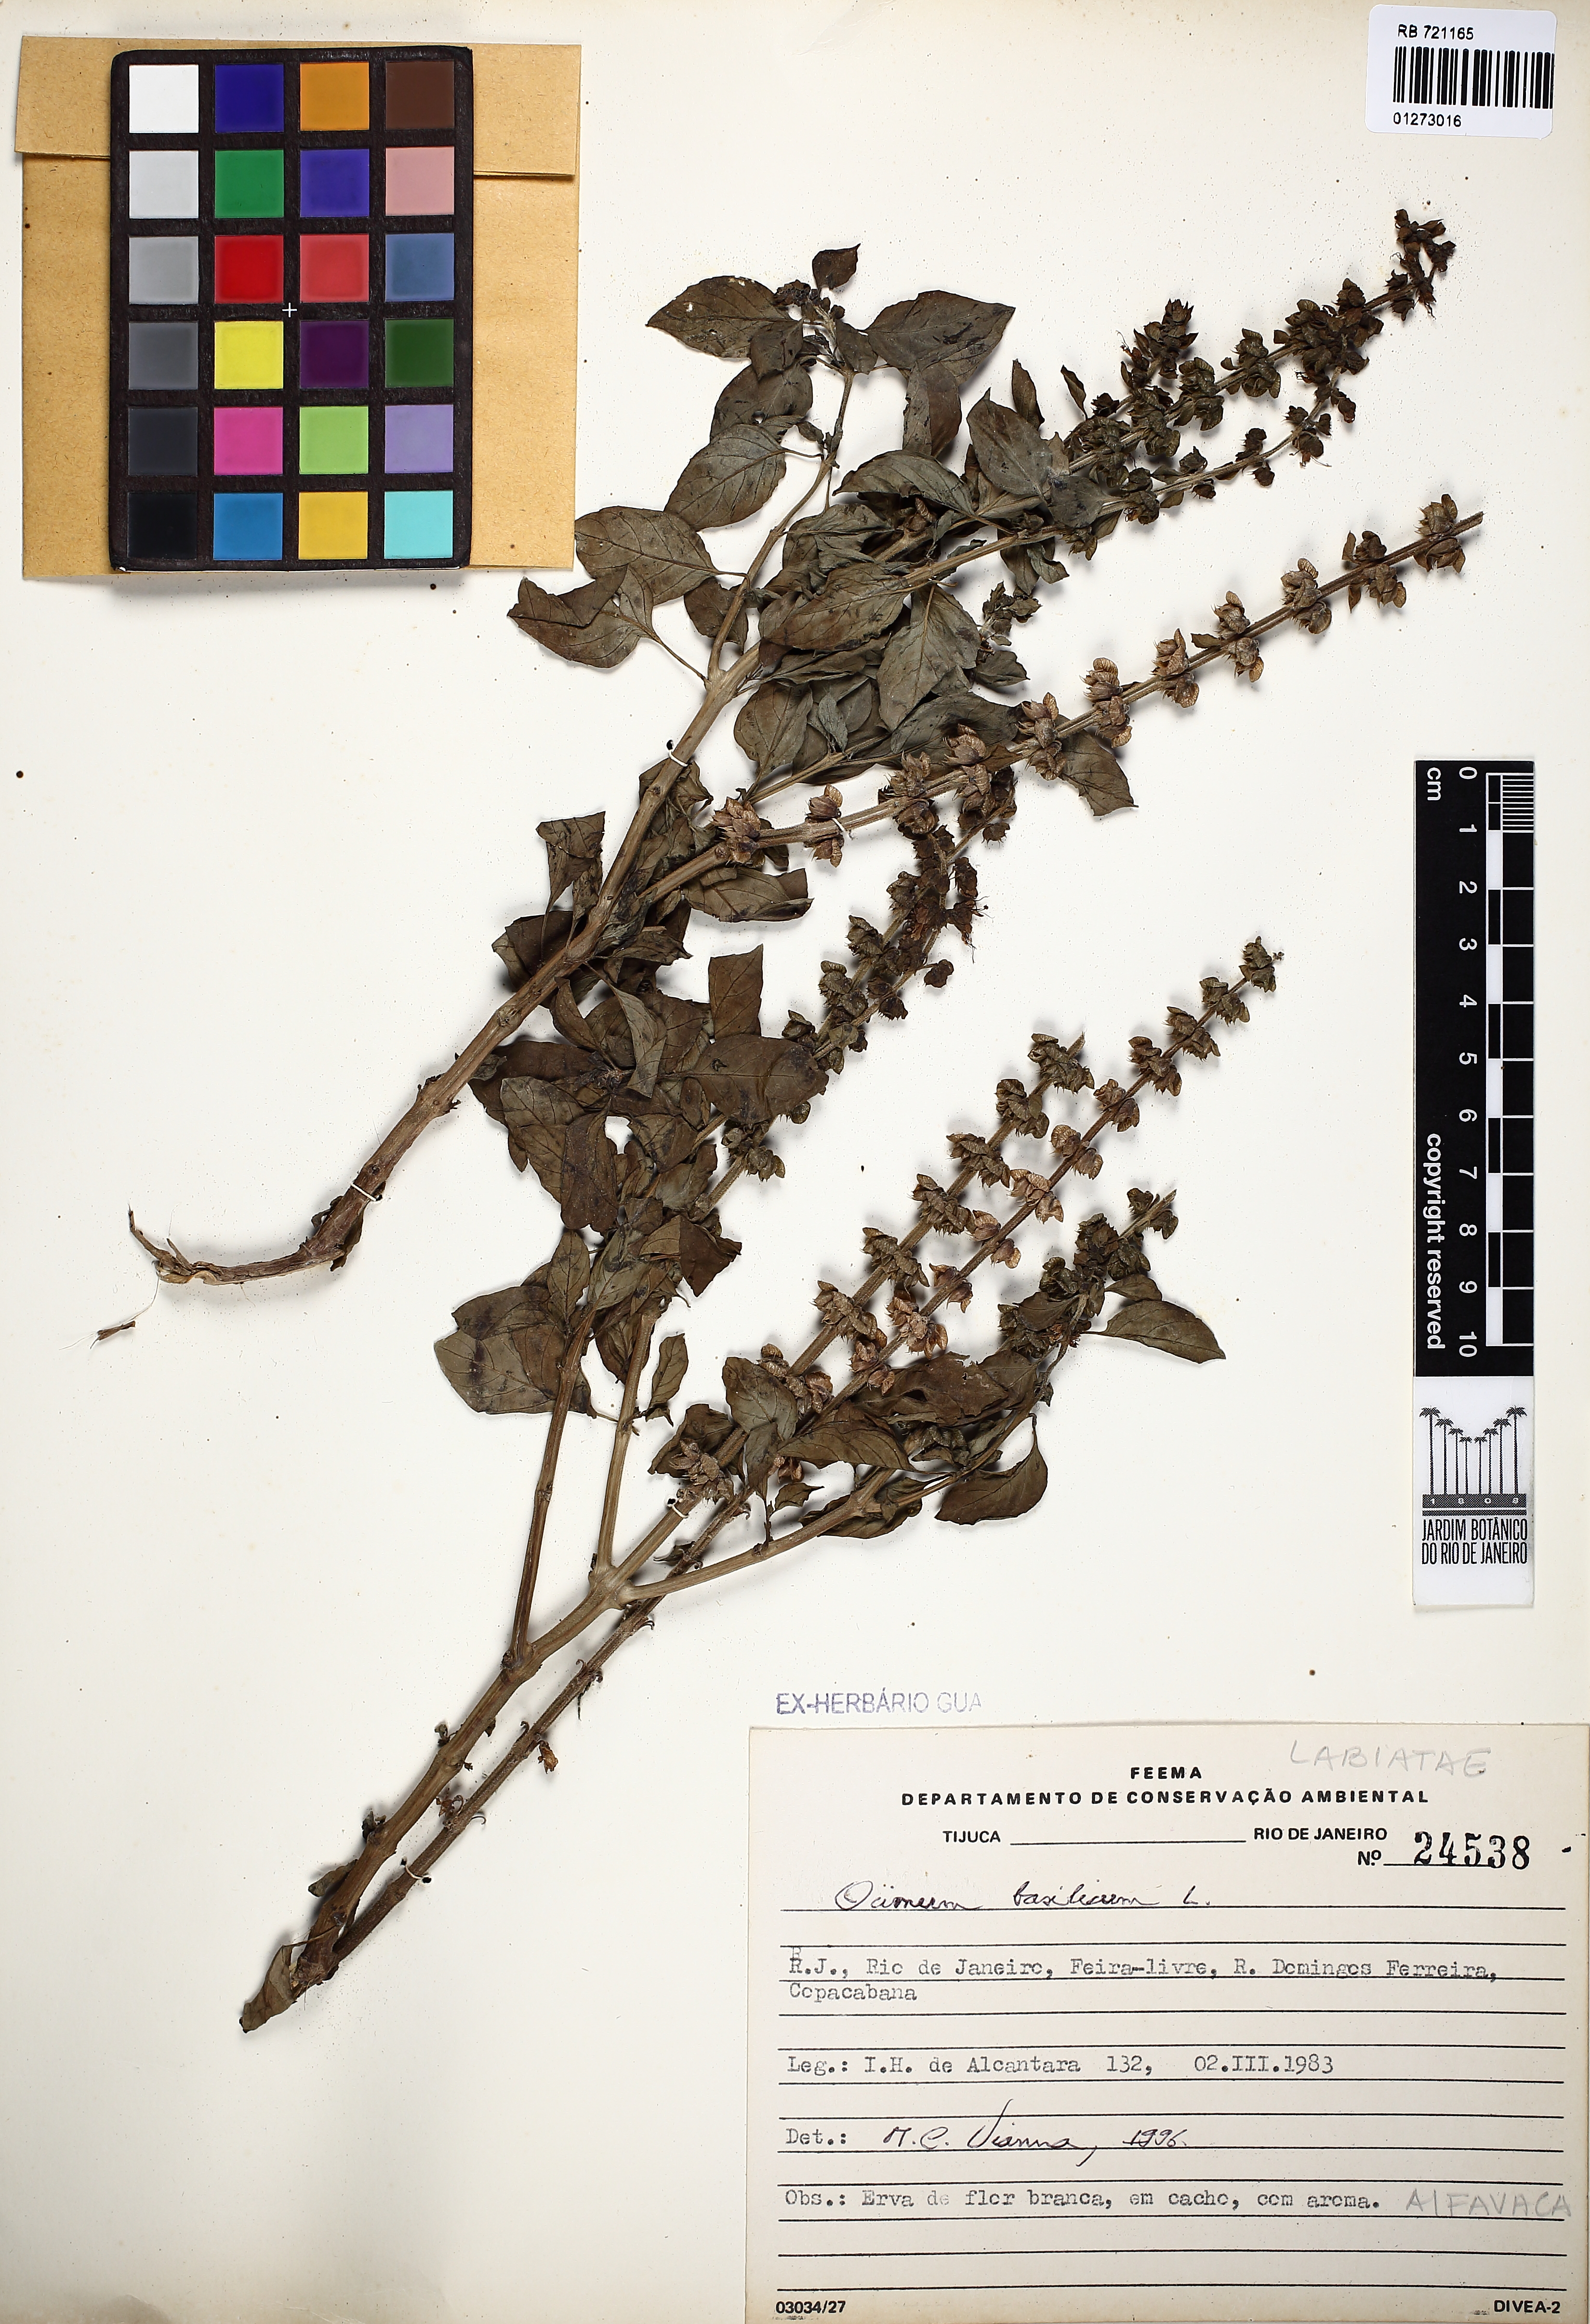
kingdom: Plantae
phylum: Tracheophyta
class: Magnoliopsida
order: Lamiales
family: Lamiaceae
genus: Ocimum
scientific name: Ocimum basilicum
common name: Sweet basil
